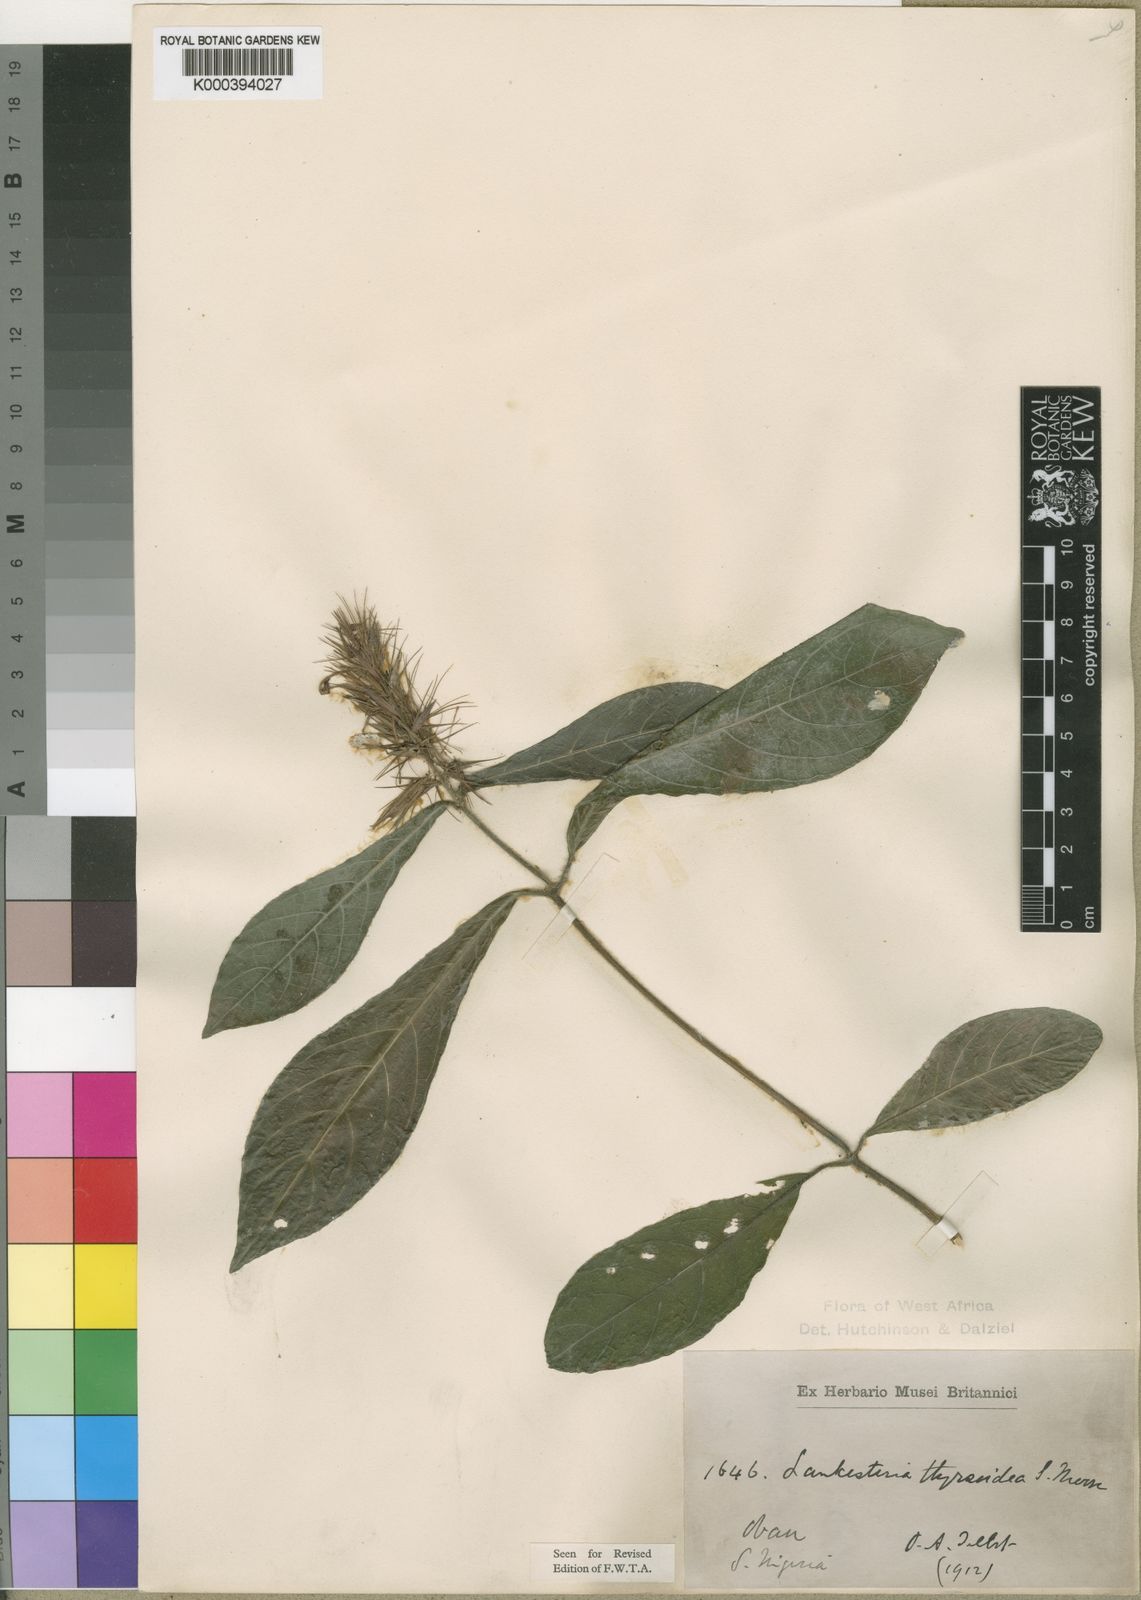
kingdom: Plantae
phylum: Tracheophyta
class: Magnoliopsida
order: Lamiales
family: Acanthaceae
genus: Lankesteria
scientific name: Lankesteria thyrsoidea
